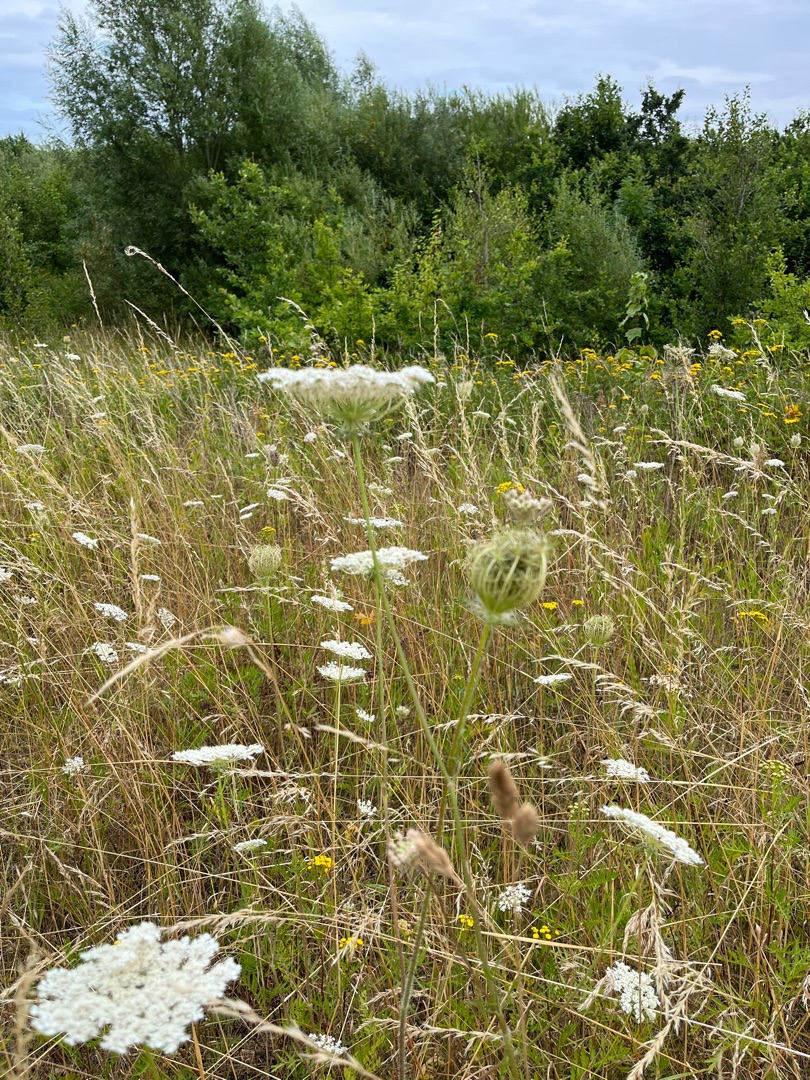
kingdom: Plantae
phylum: Tracheophyta
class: Magnoliopsida
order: Apiales
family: Apiaceae
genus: Daucus
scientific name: Daucus carota
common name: Vild gulerod
